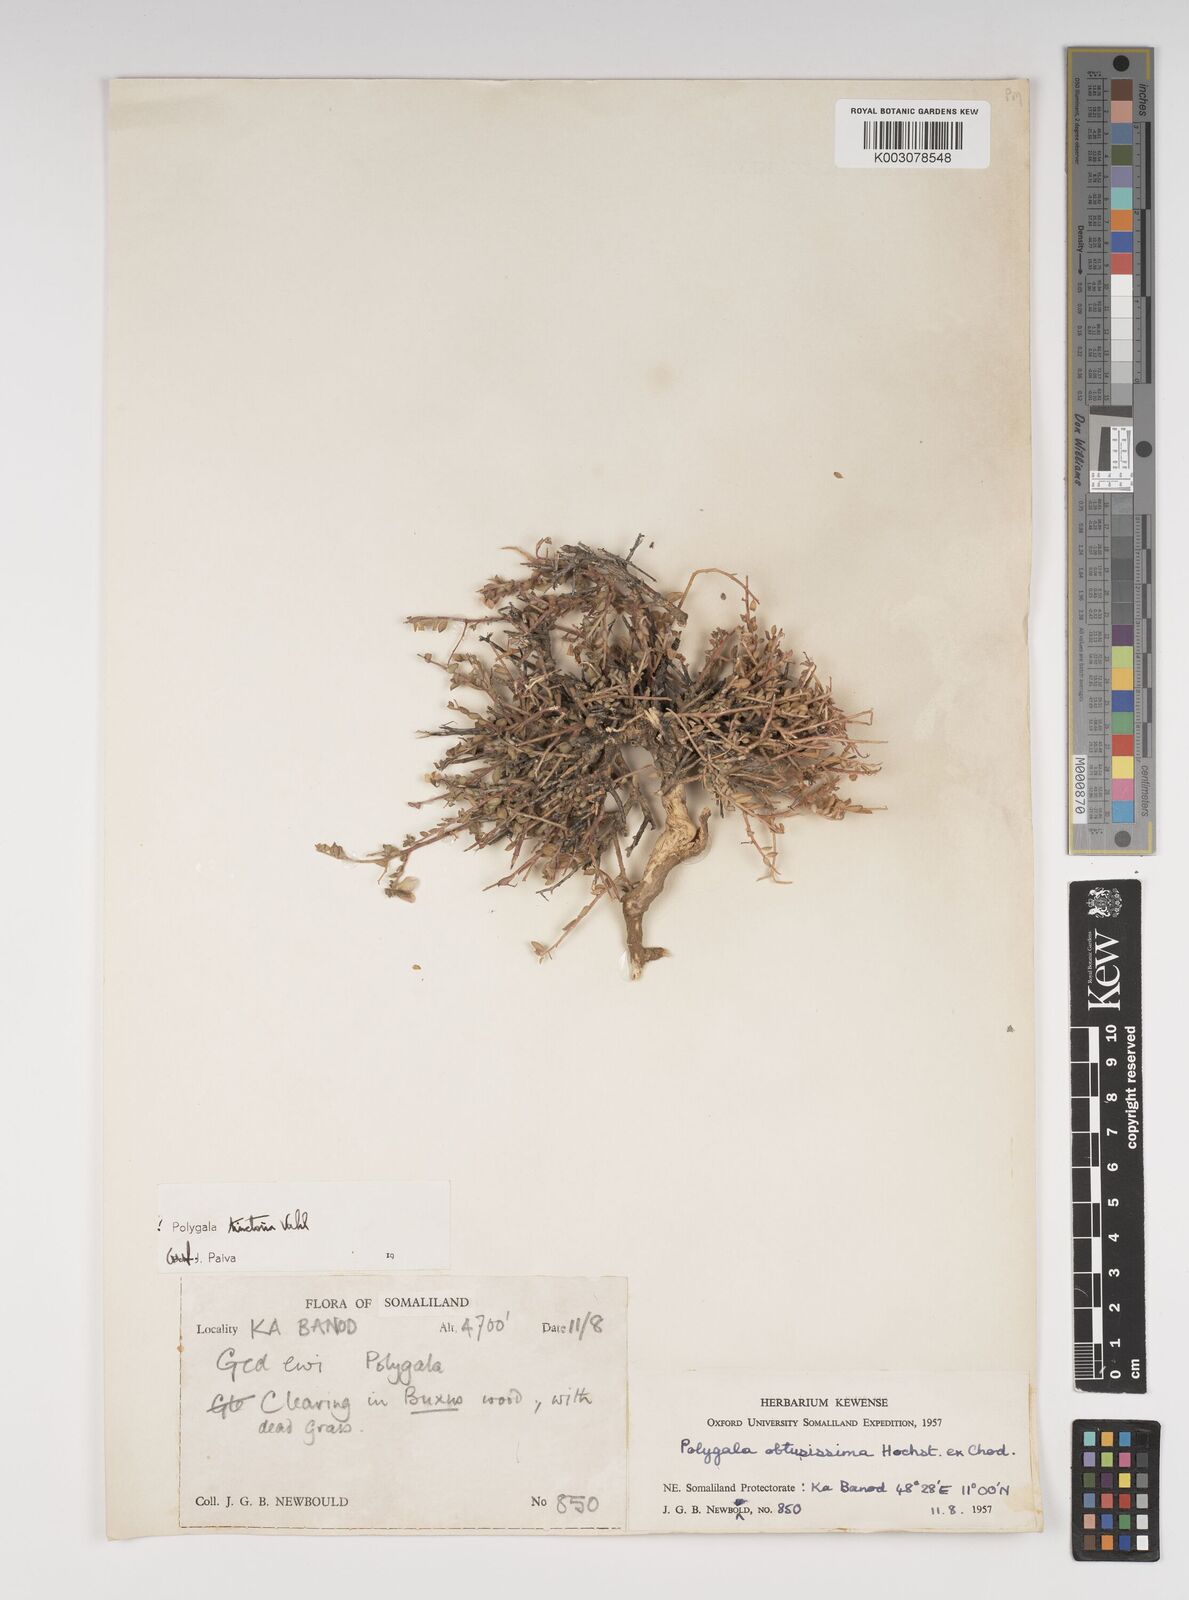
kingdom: Plantae
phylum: Tracheophyta
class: Magnoliopsida
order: Fabales
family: Polygalaceae
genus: Polygala
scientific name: Polygala obtusissima
